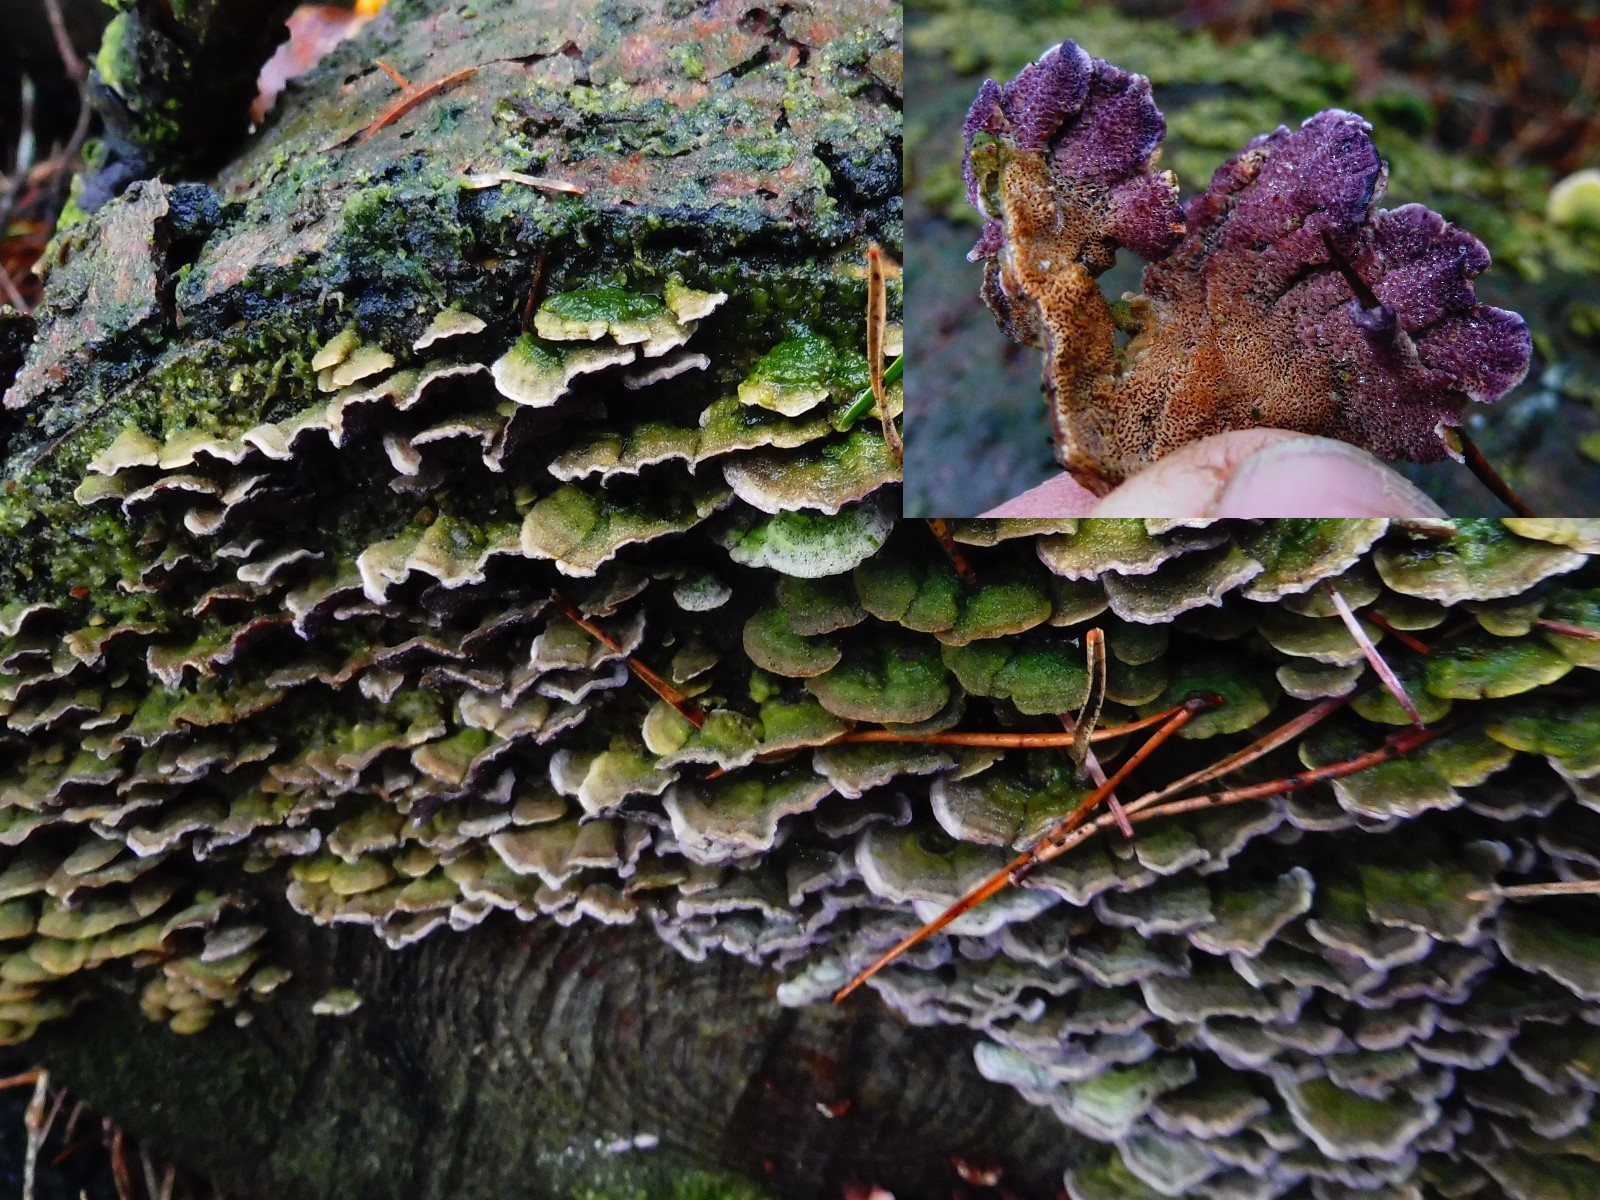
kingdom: Fungi
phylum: Basidiomycota
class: Agaricomycetes
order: Hymenochaetales
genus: Trichaptum
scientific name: Trichaptum abietinum
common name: almindelig violporesvamp
